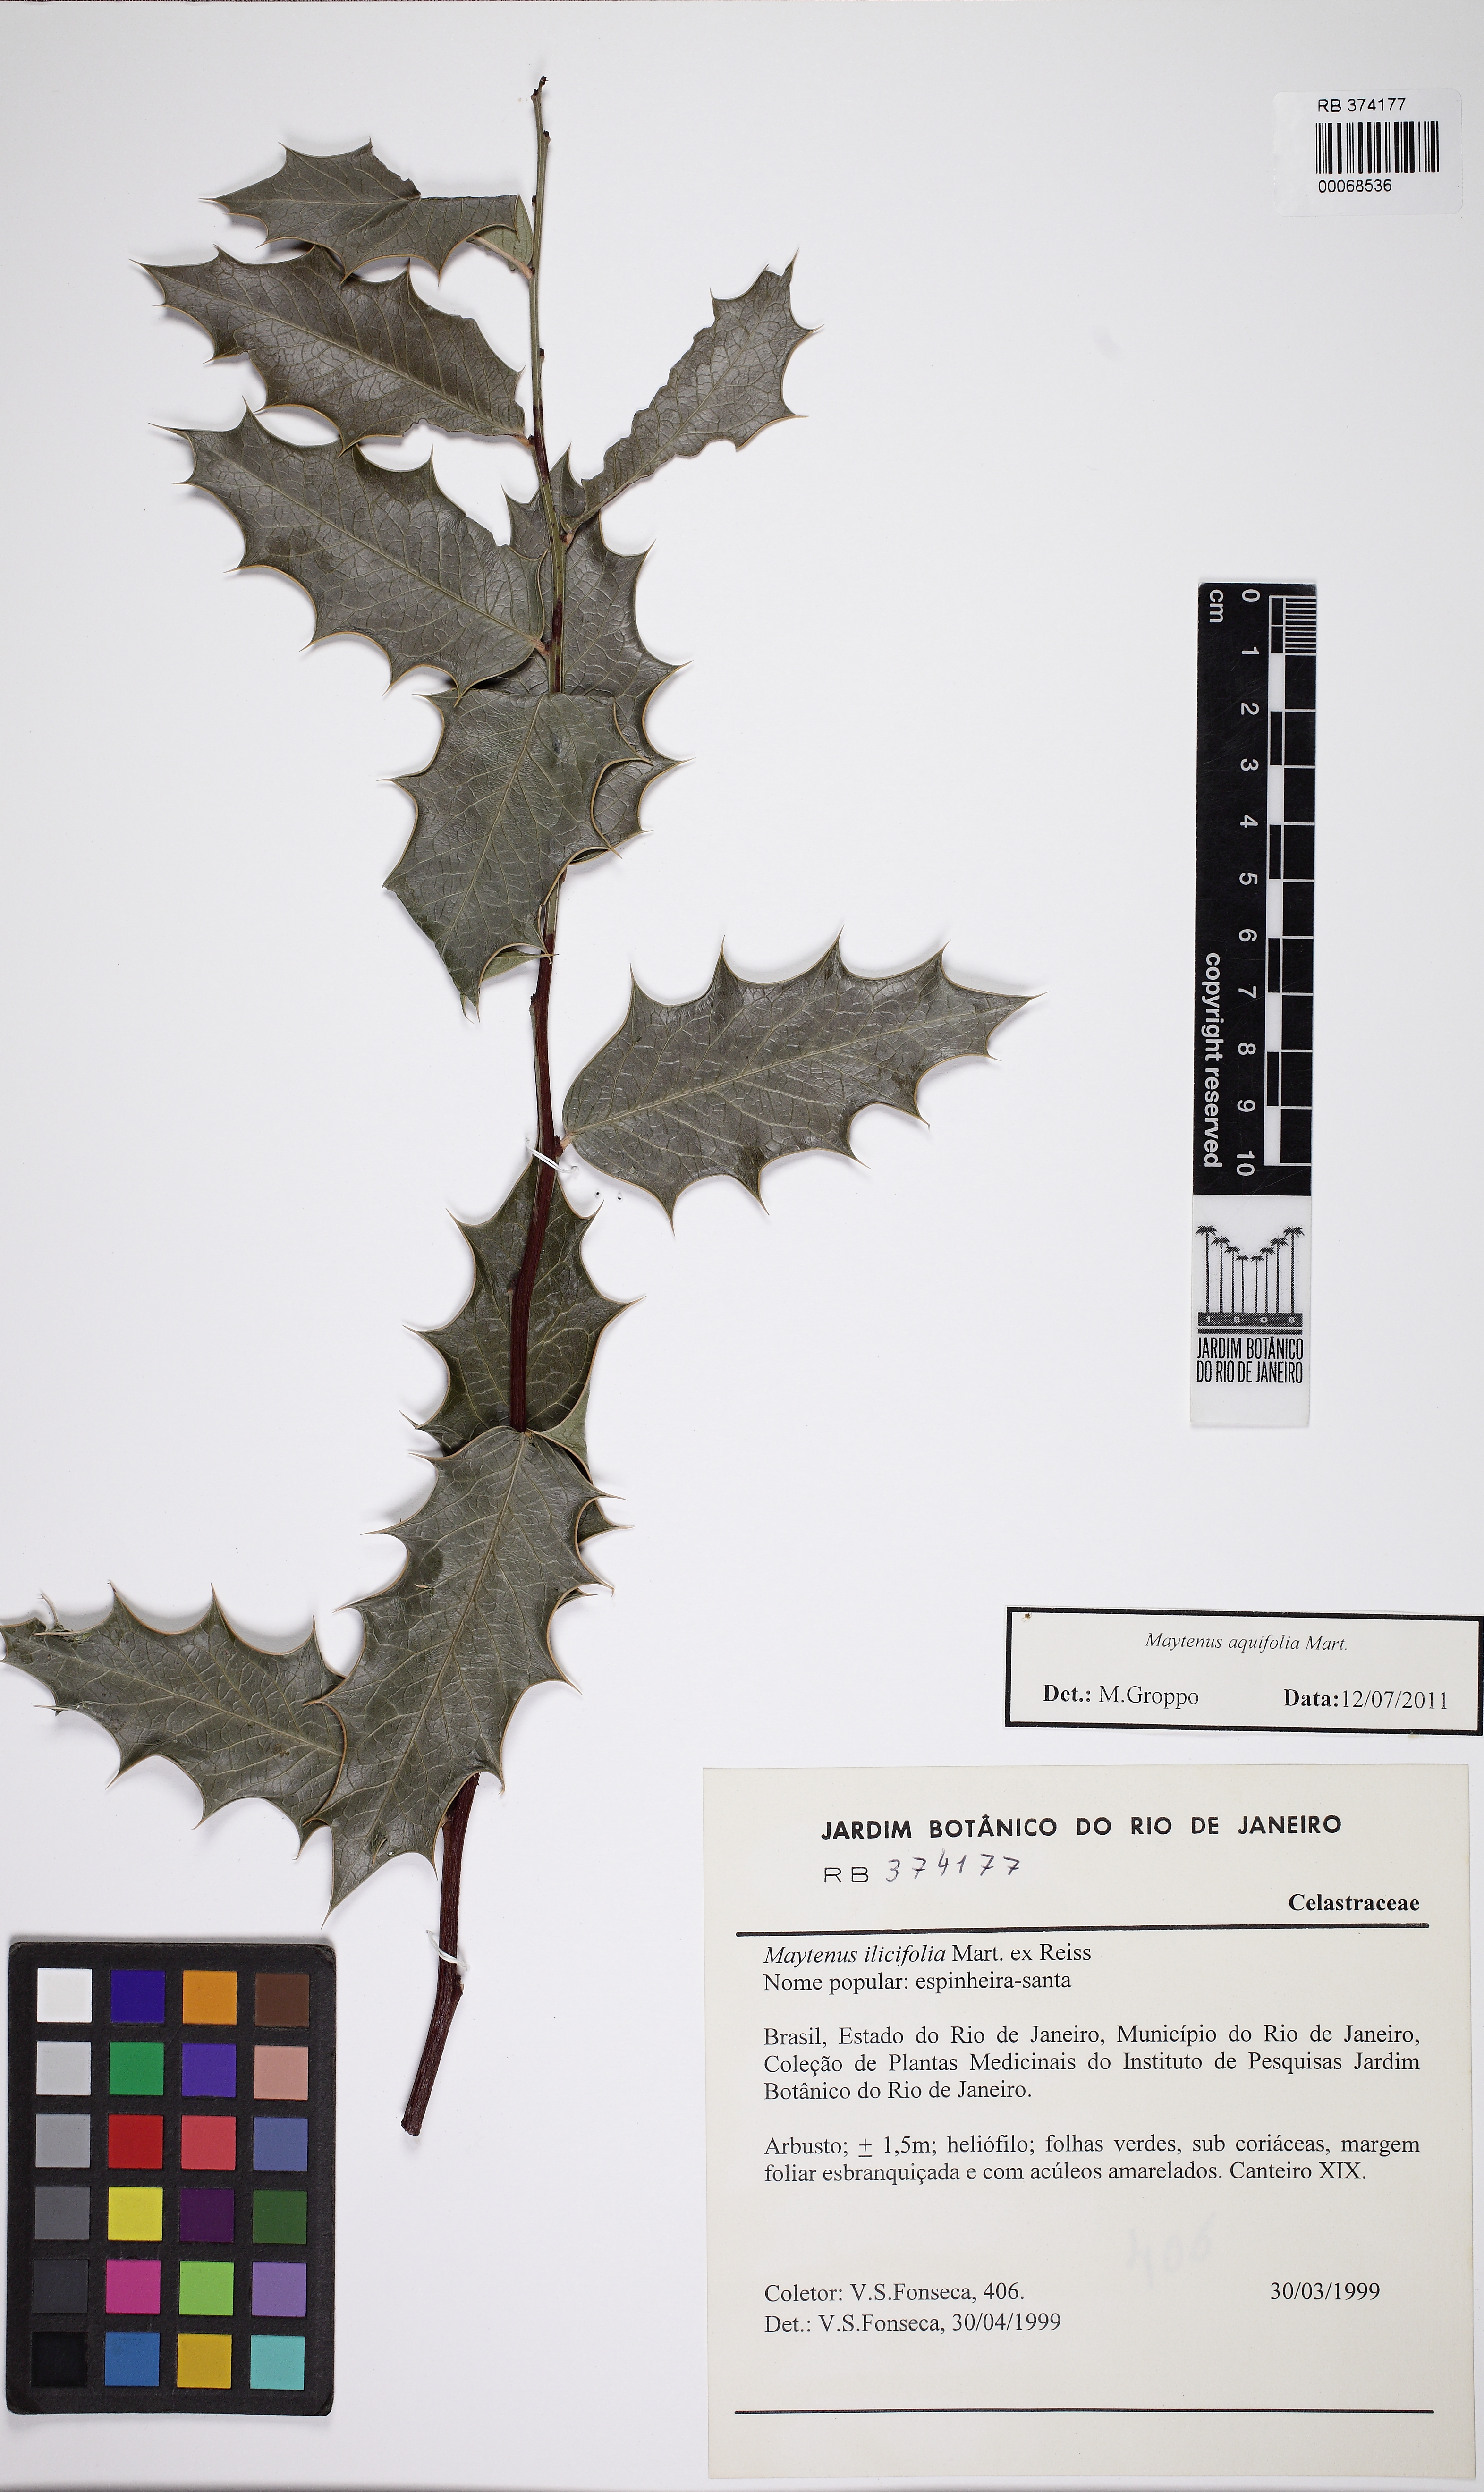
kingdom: Plantae
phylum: Tracheophyta
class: Magnoliopsida
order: Celastrales
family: Celastraceae
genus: Monteverdia
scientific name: Monteverdia ilicifolia
